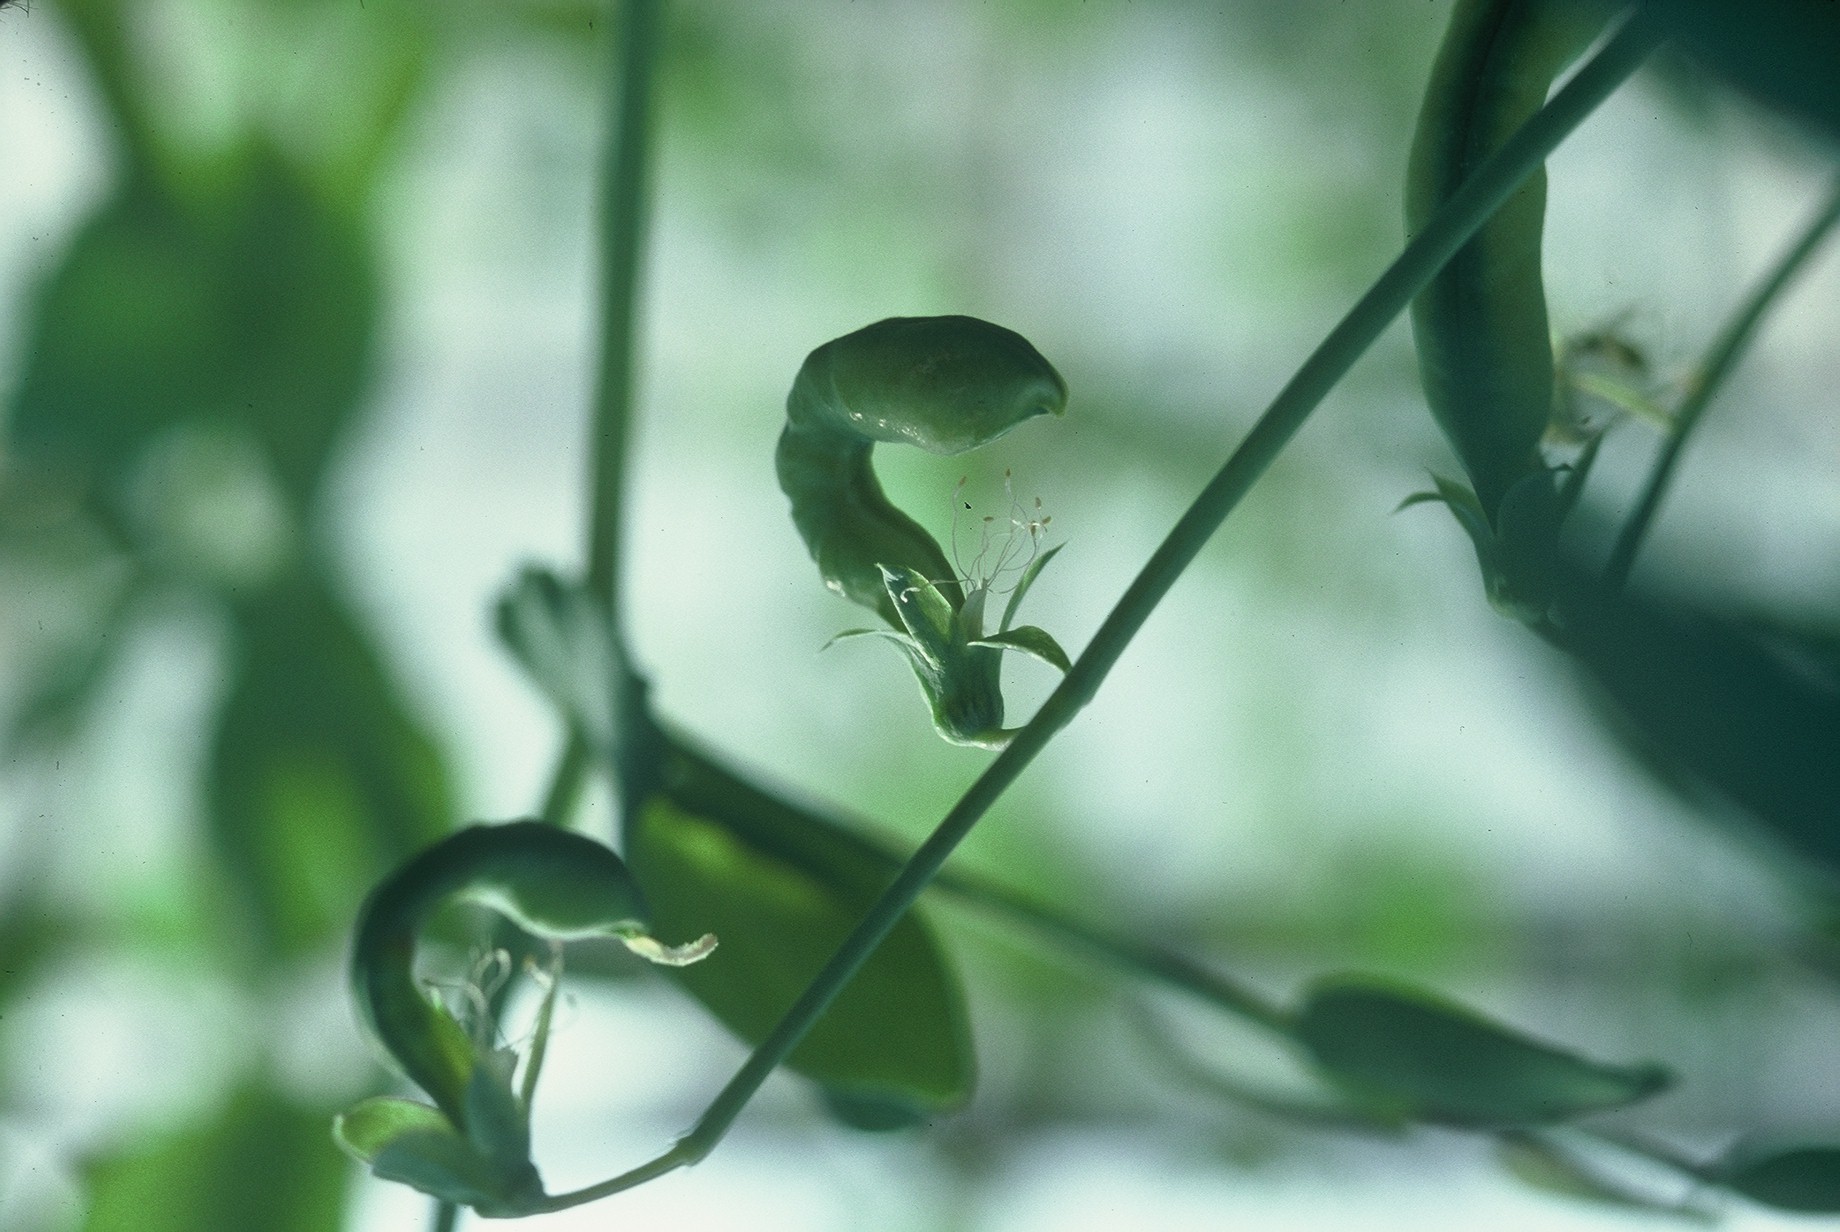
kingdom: Plantae
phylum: Tracheophyta
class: Magnoliopsida
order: Fabales
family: Fabaceae
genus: Lathyrus
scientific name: Lathyrus oleraceus
